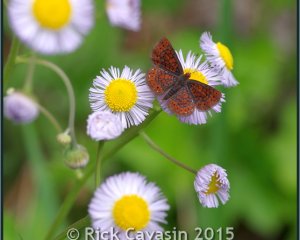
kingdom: Animalia
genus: Calephelis
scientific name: Calephelis virginiensis
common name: Little Metalmark
